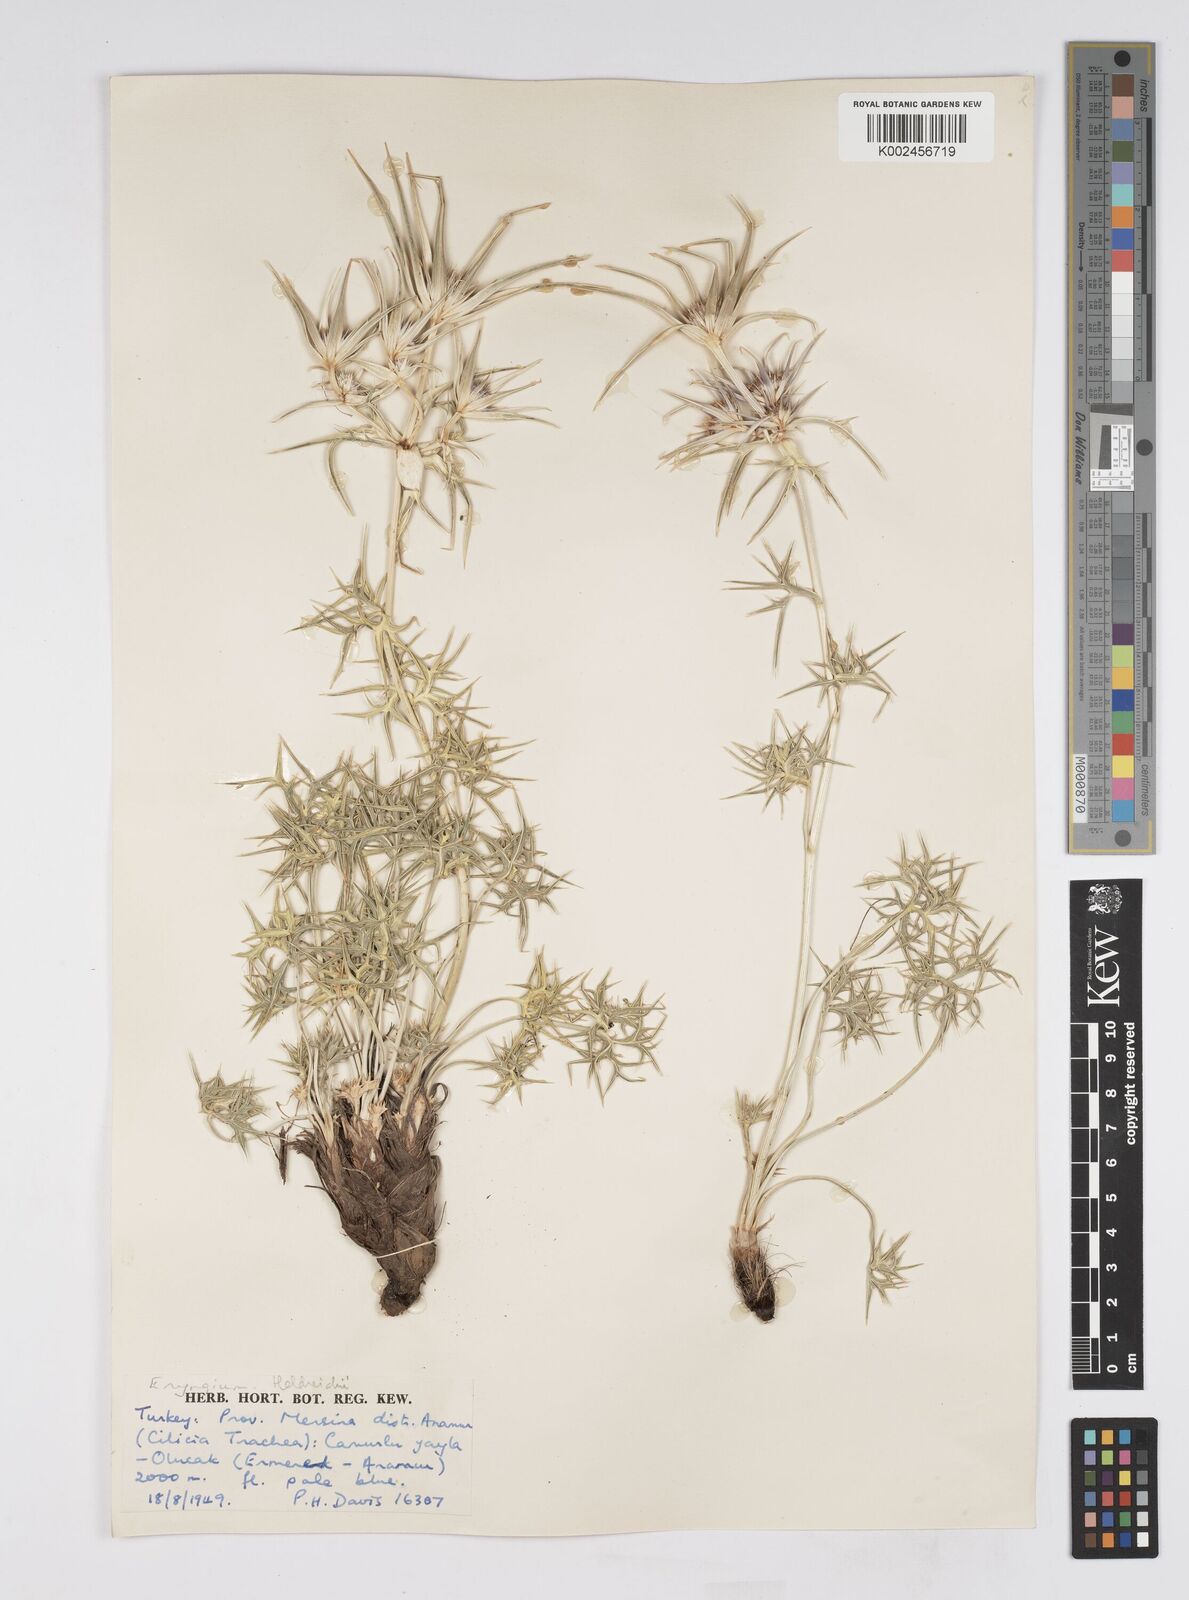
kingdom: Plantae
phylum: Tracheophyta
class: Magnoliopsida
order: Apiales
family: Apiaceae
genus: Eryngium
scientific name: Eryngium heldreichii
